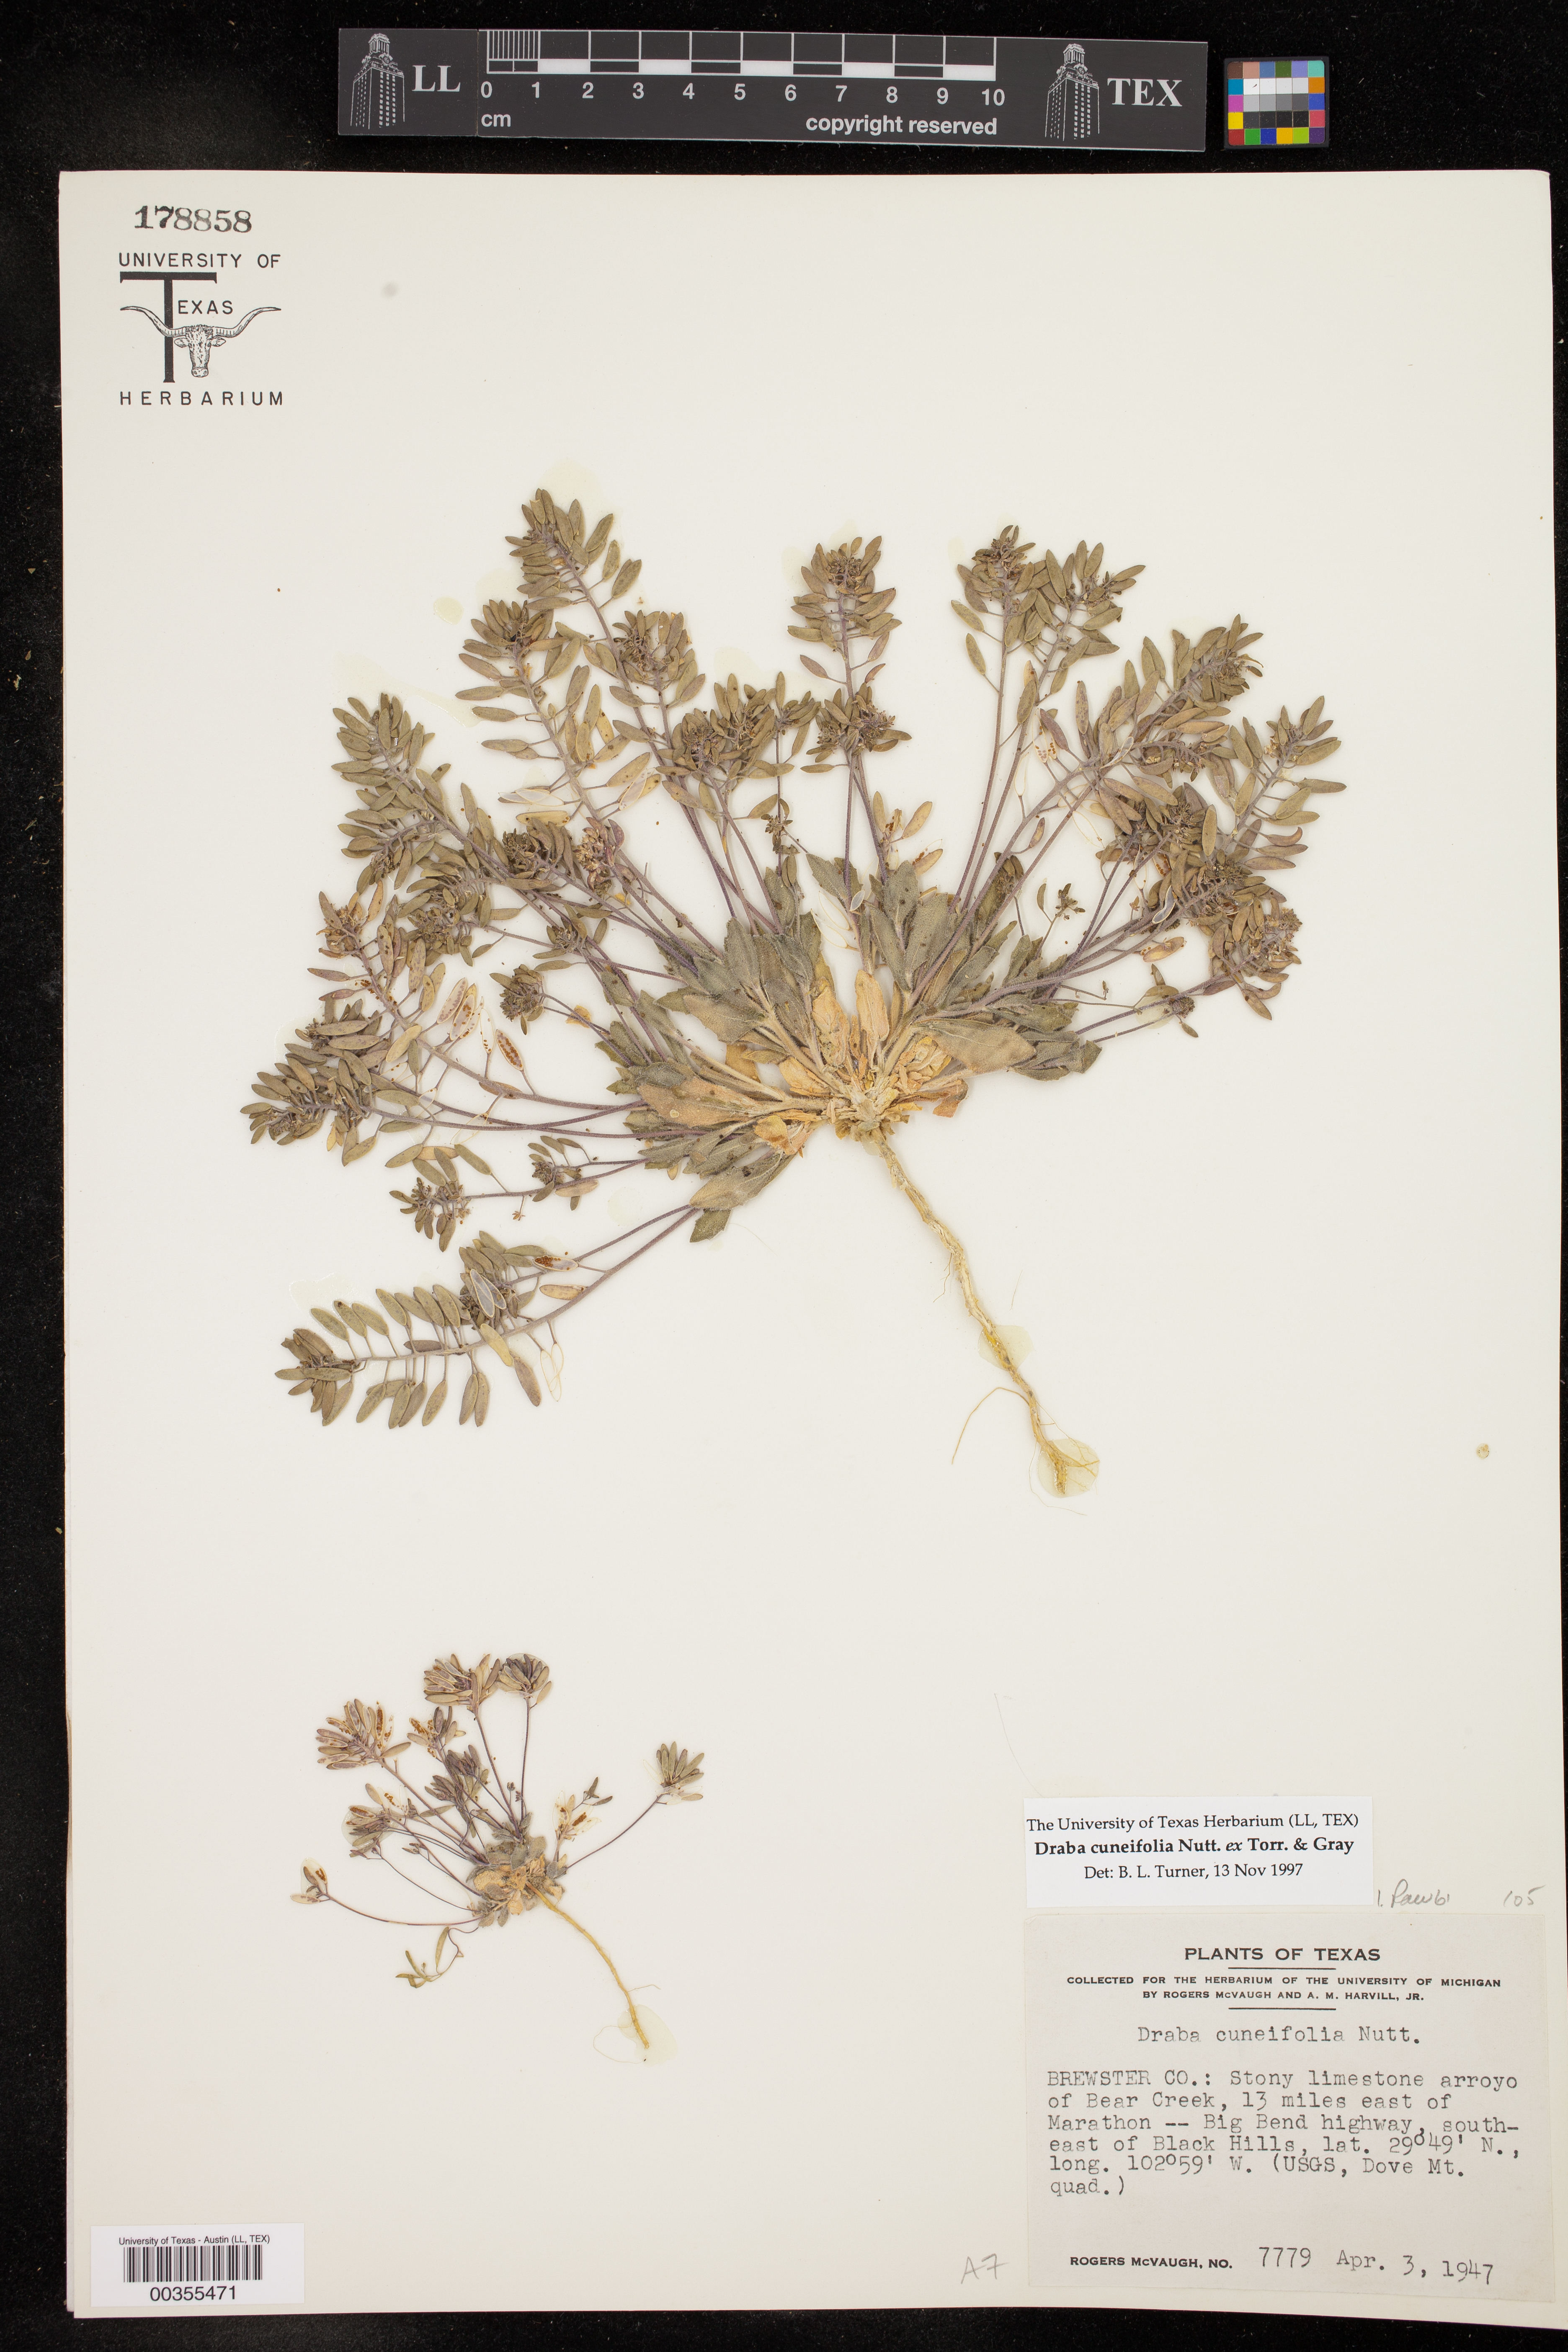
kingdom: Plantae
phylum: Tracheophyta
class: Magnoliopsida
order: Brassicales
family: Brassicaceae
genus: Tomostima
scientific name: Tomostima cuneifolia
